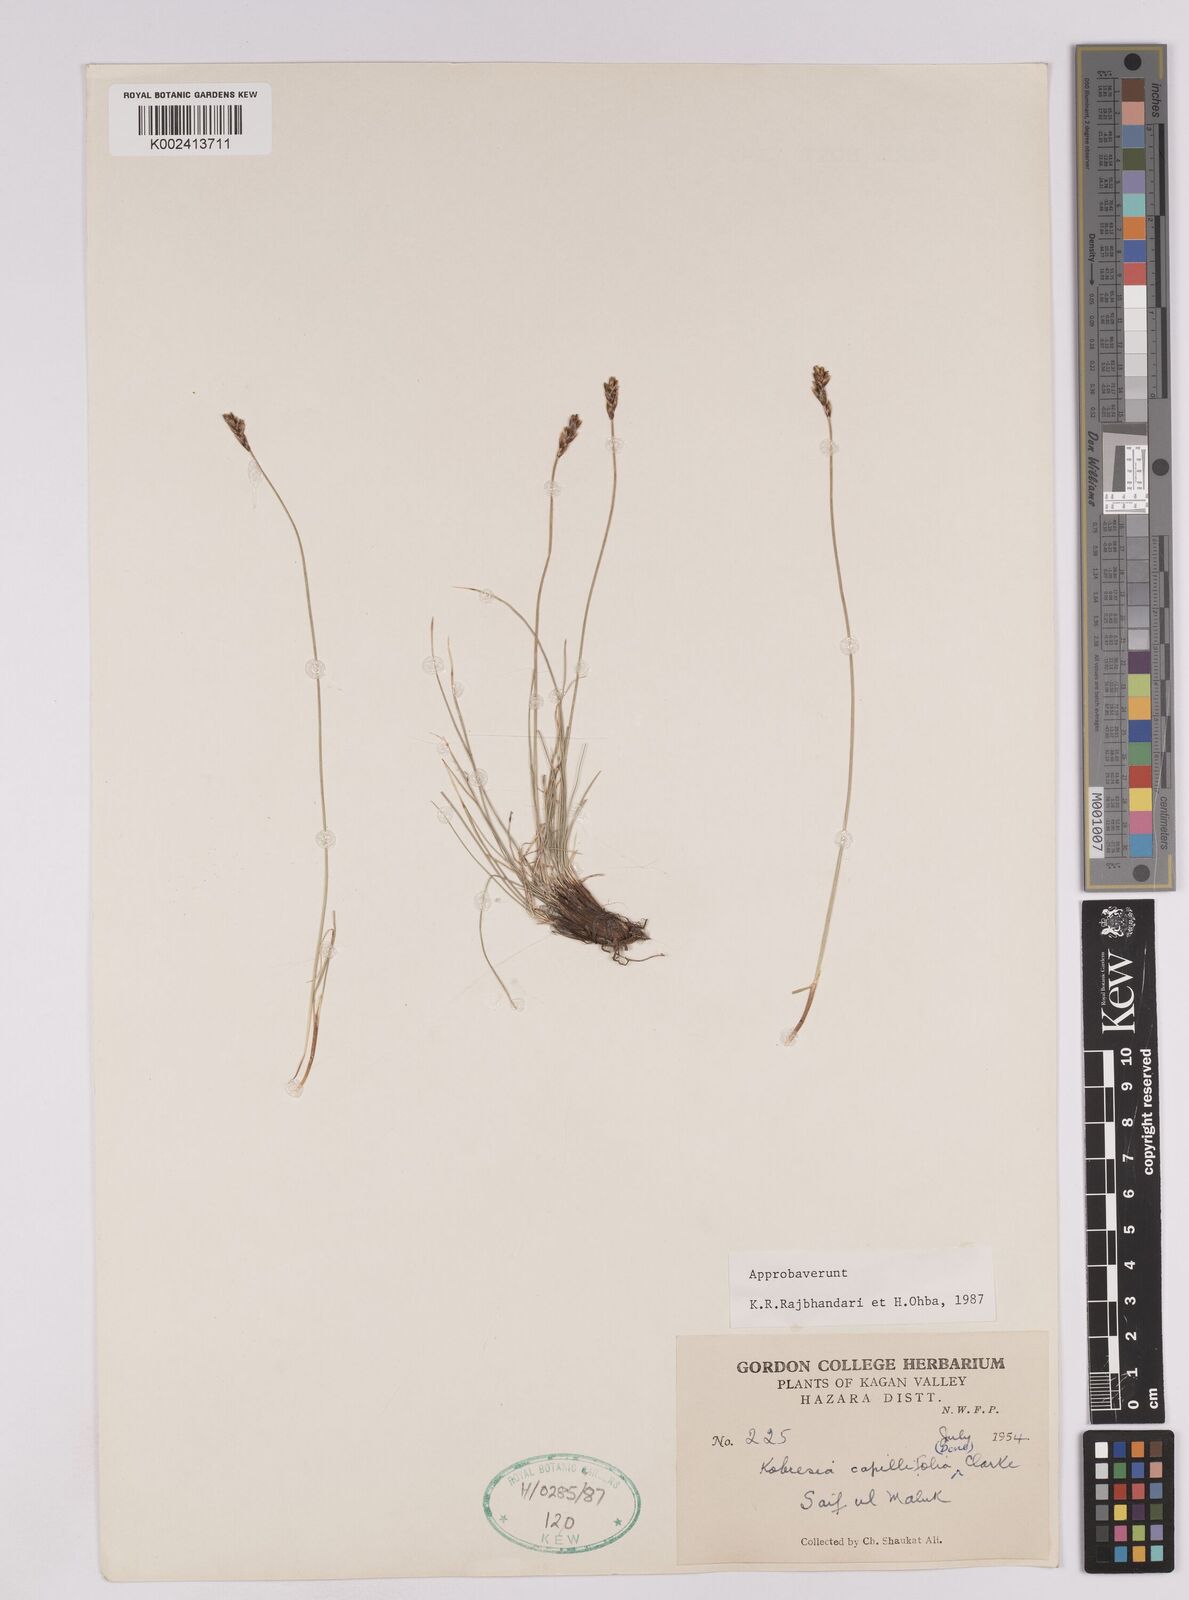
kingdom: Plantae
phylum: Tracheophyta
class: Liliopsida
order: Poales
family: Cyperaceae
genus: Carex
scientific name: Carex capillifolia
